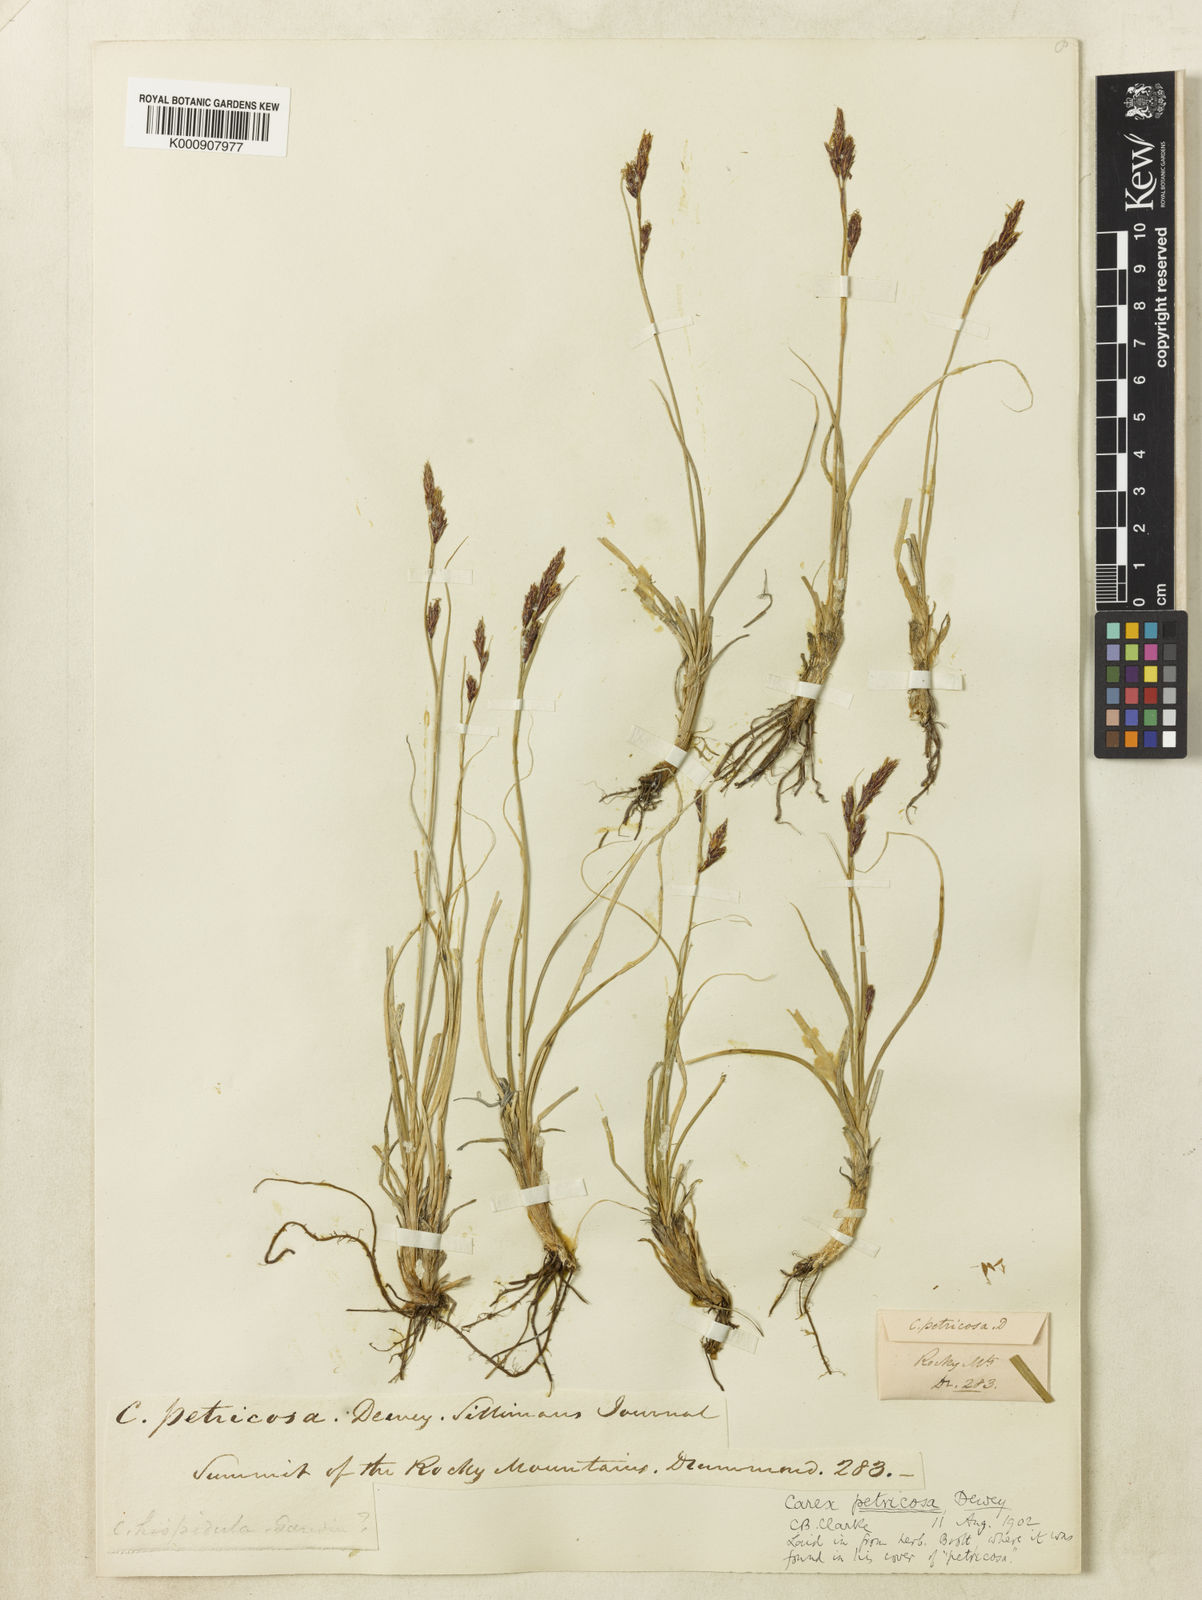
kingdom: Plantae
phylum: Tracheophyta
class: Liliopsida
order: Poales
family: Cyperaceae
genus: Carex
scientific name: Carex petricosa
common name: Rock sedge
